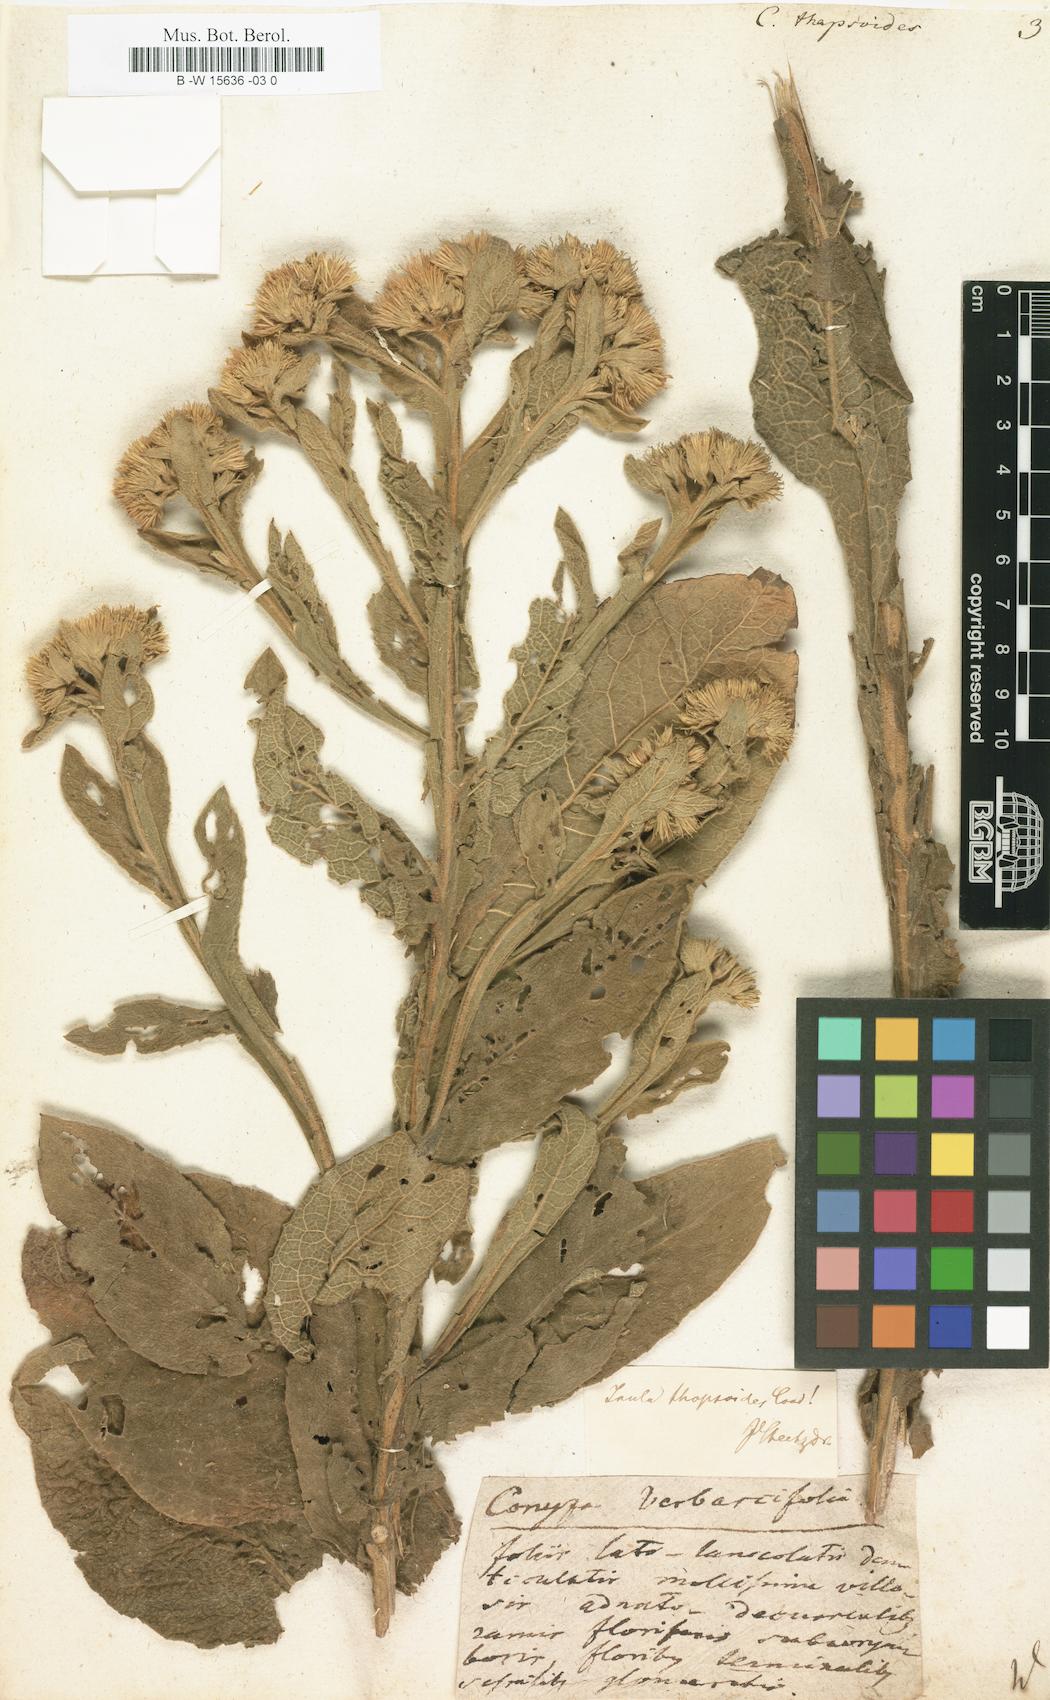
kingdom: Plantae
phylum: Tracheophyta
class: Magnoliopsida
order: Asterales
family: Asteraceae
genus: Inula
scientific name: Inula thapsoides
